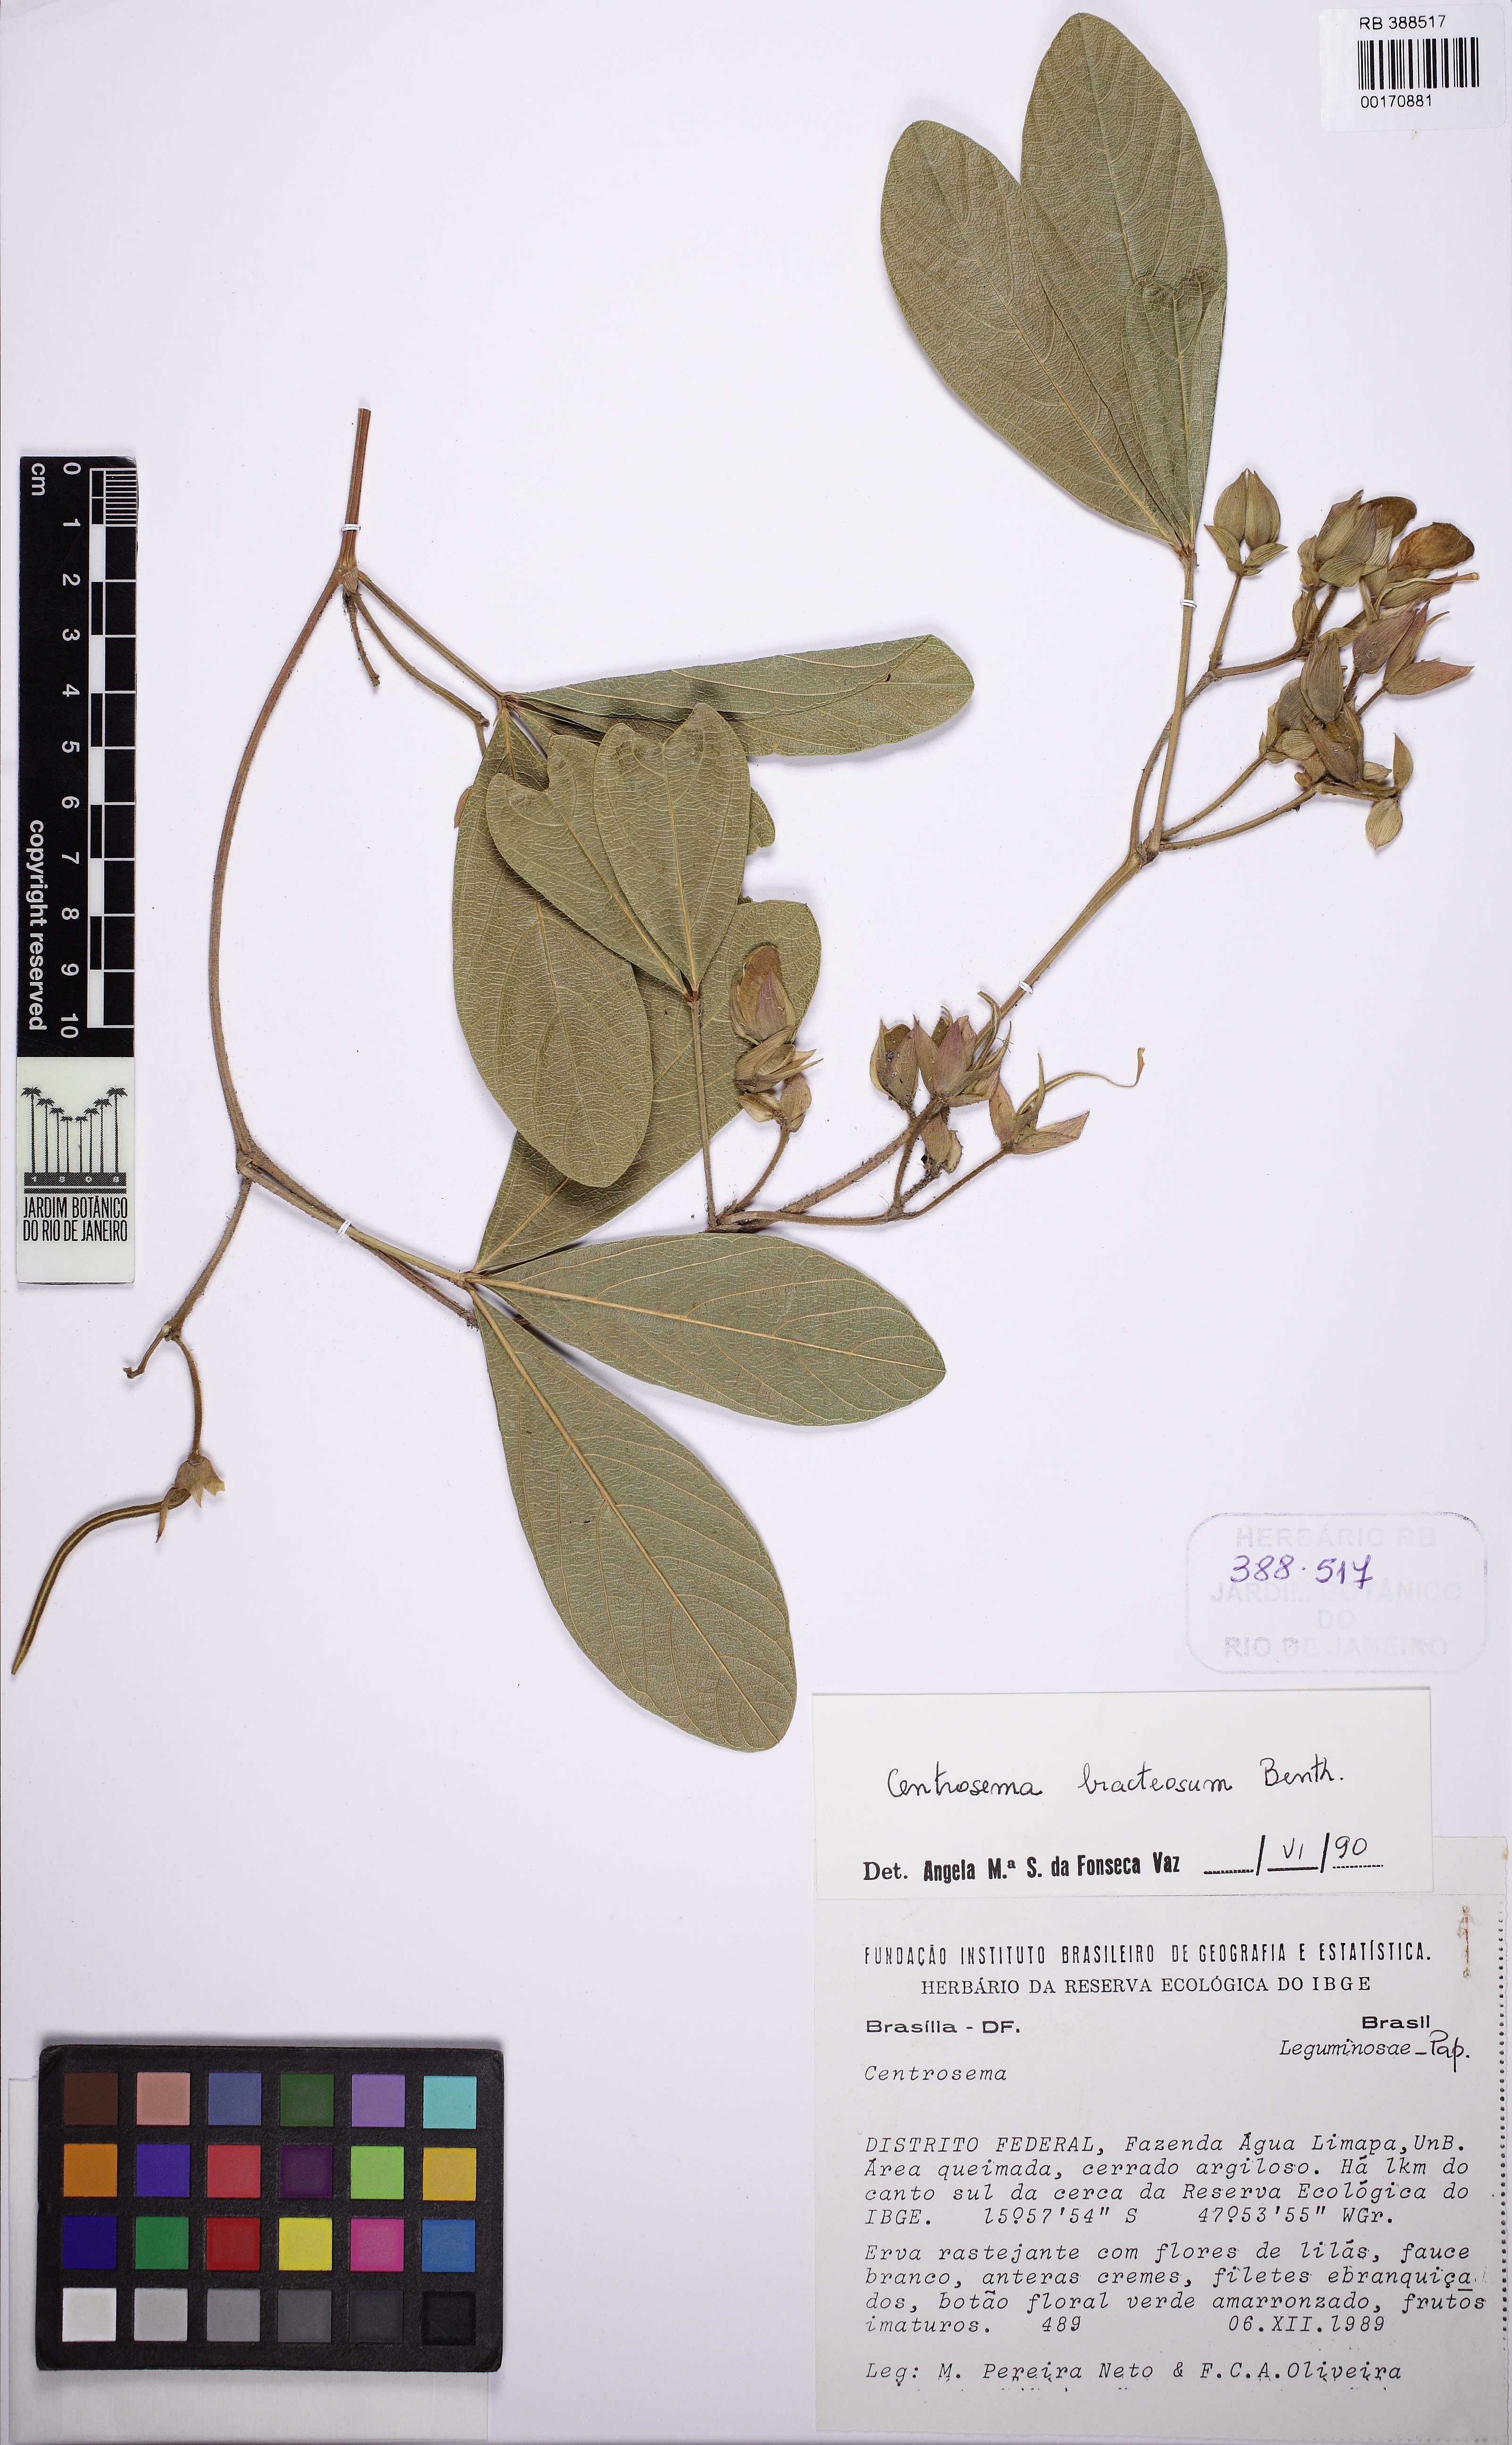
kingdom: Plantae
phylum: Tracheophyta
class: Magnoliopsida
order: Fabales
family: Fabaceae
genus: Centrosema
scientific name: Centrosema bracteosum
